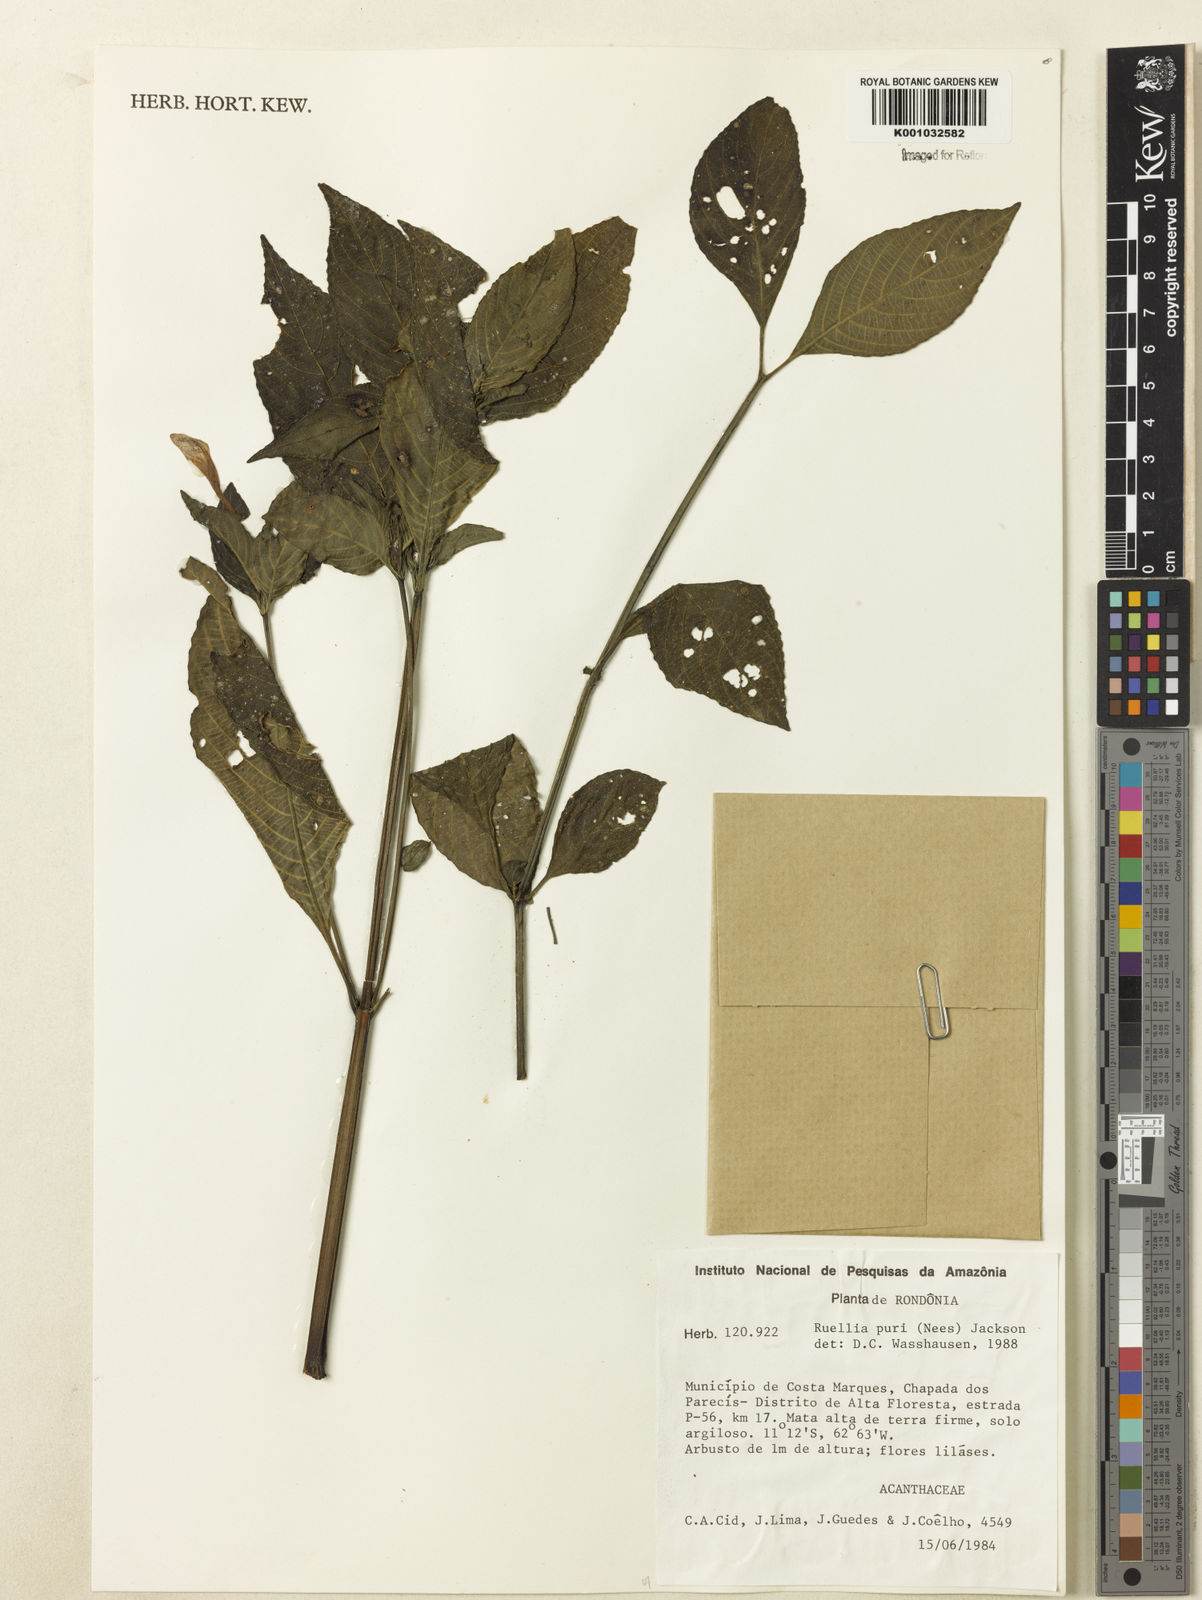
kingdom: Plantae
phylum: Tracheophyta
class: Magnoliopsida
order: Lamiales
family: Acanthaceae
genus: Ruellia
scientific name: Ruellia jussieuoides
